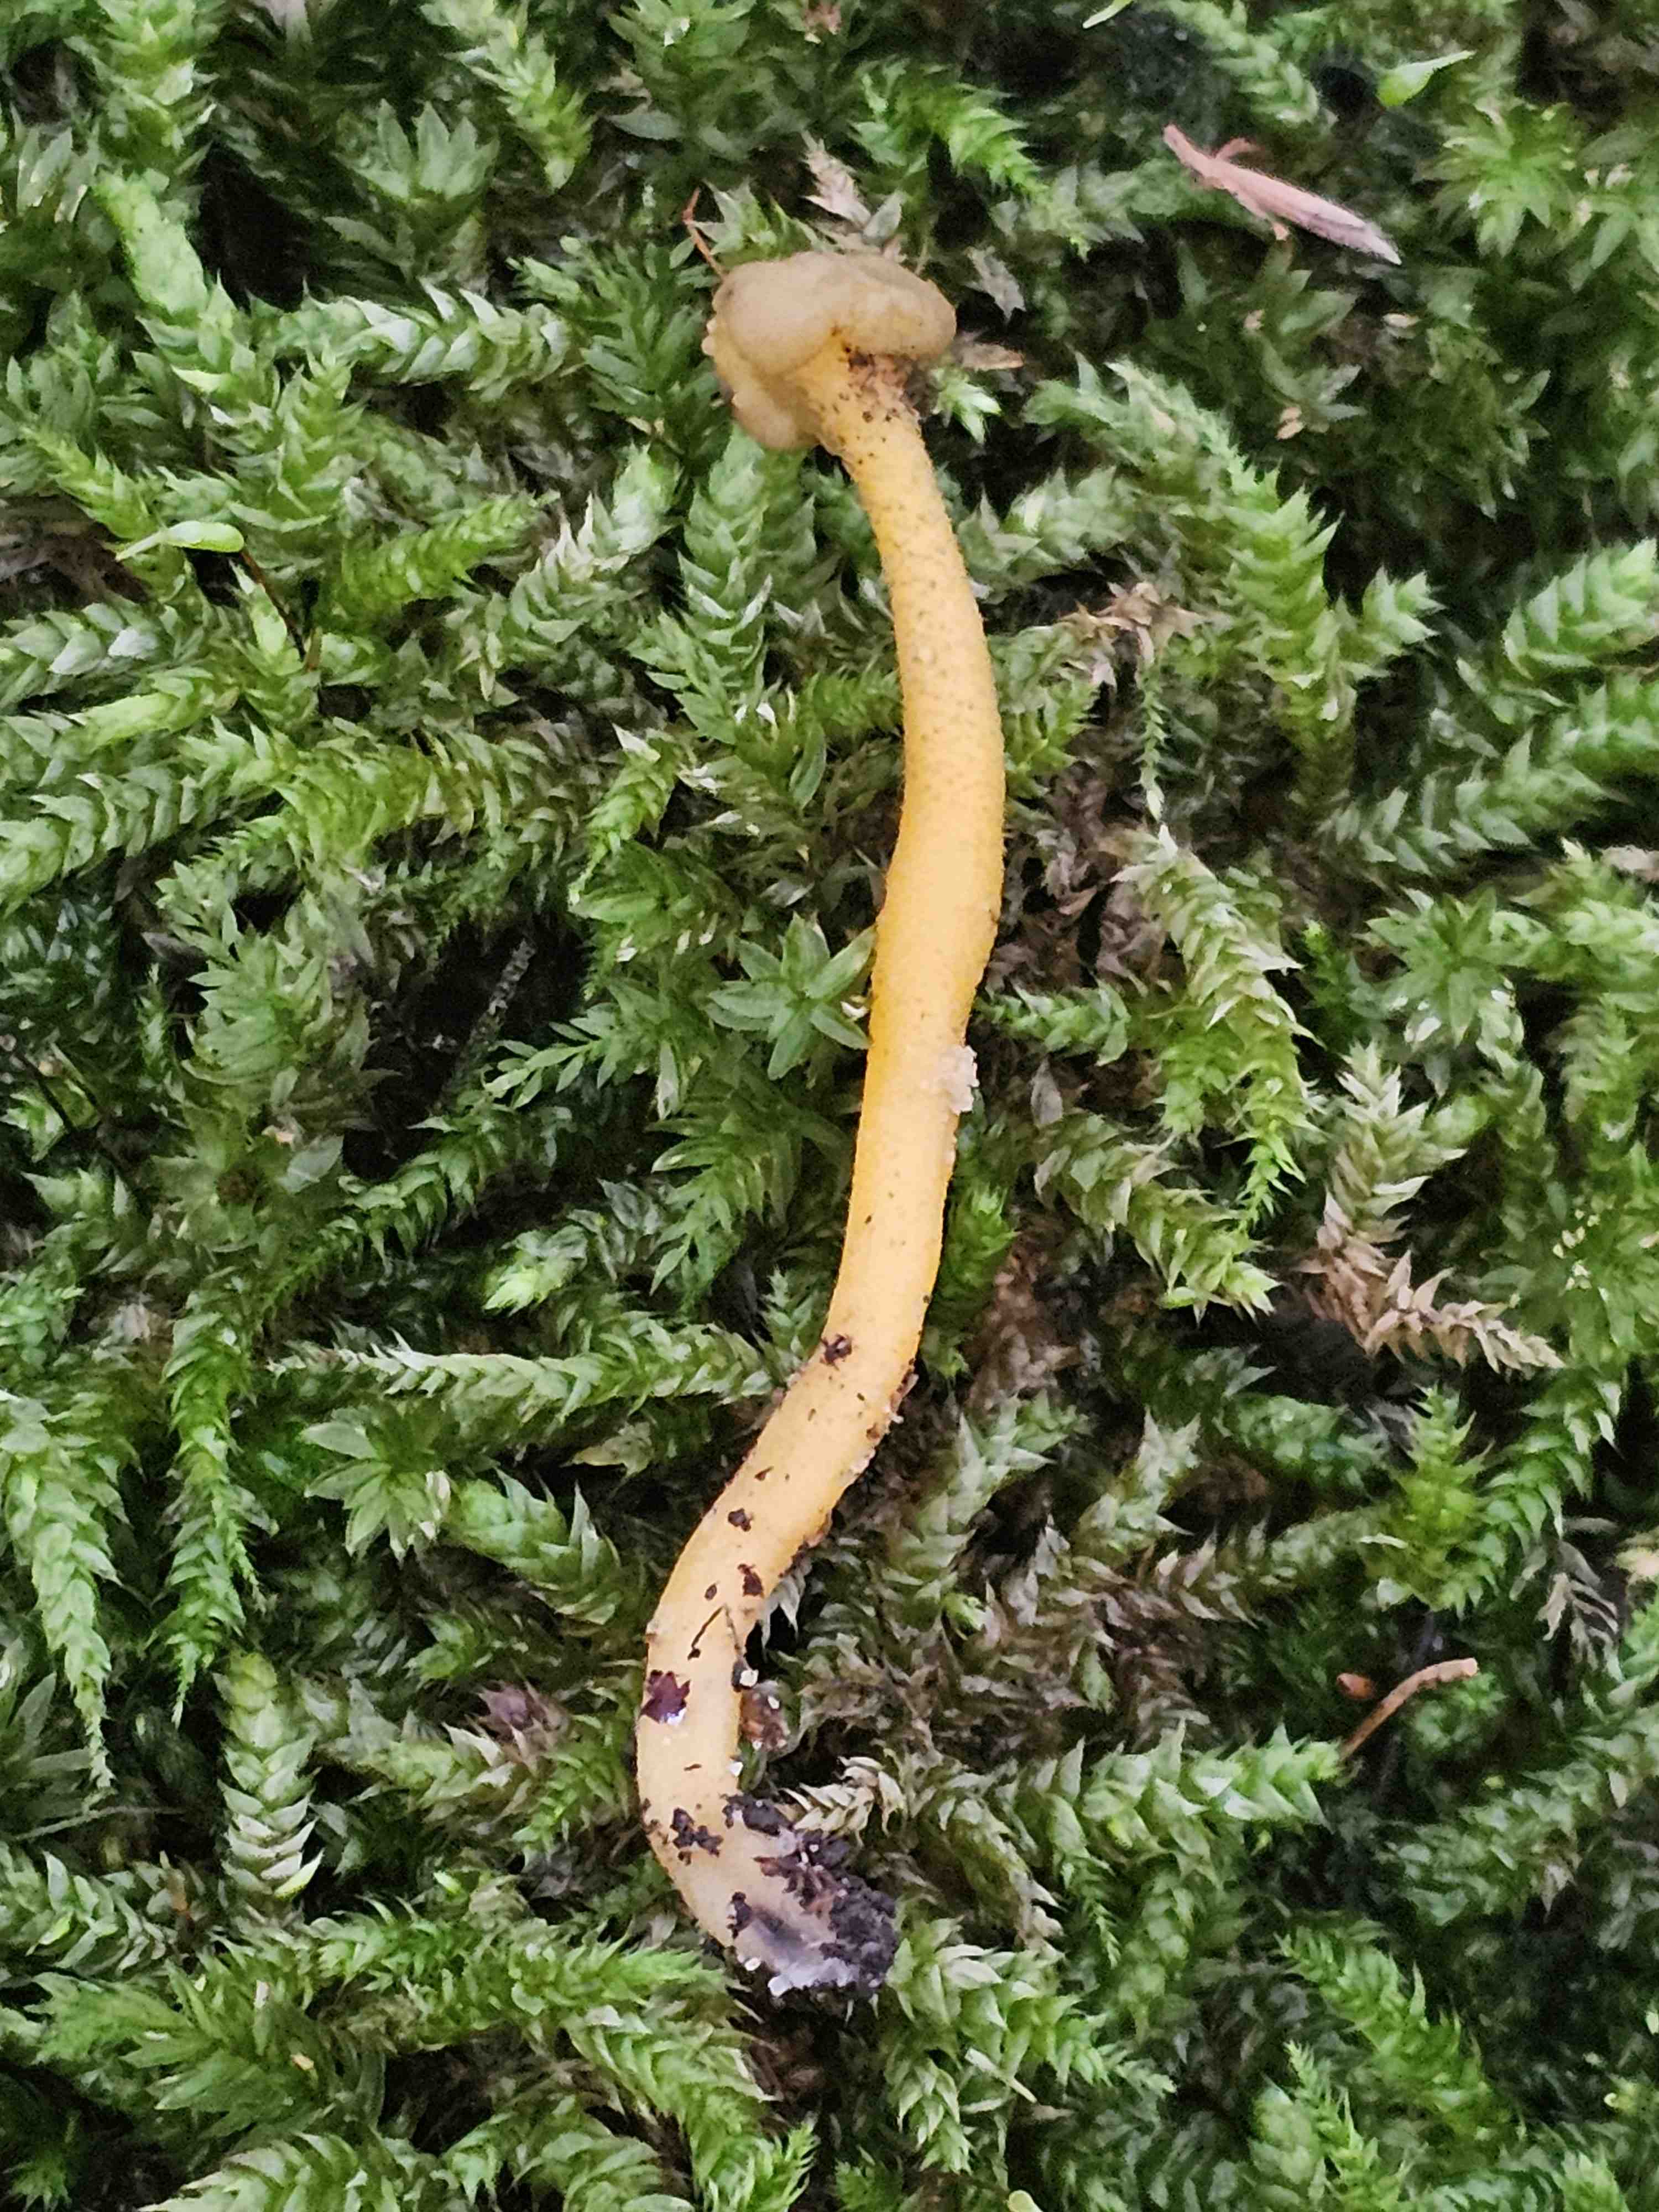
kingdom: Fungi
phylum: Ascomycota
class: Leotiomycetes
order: Leotiales
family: Leotiaceae
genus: Leotia
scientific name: Leotia lubrica
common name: ravsvamp
